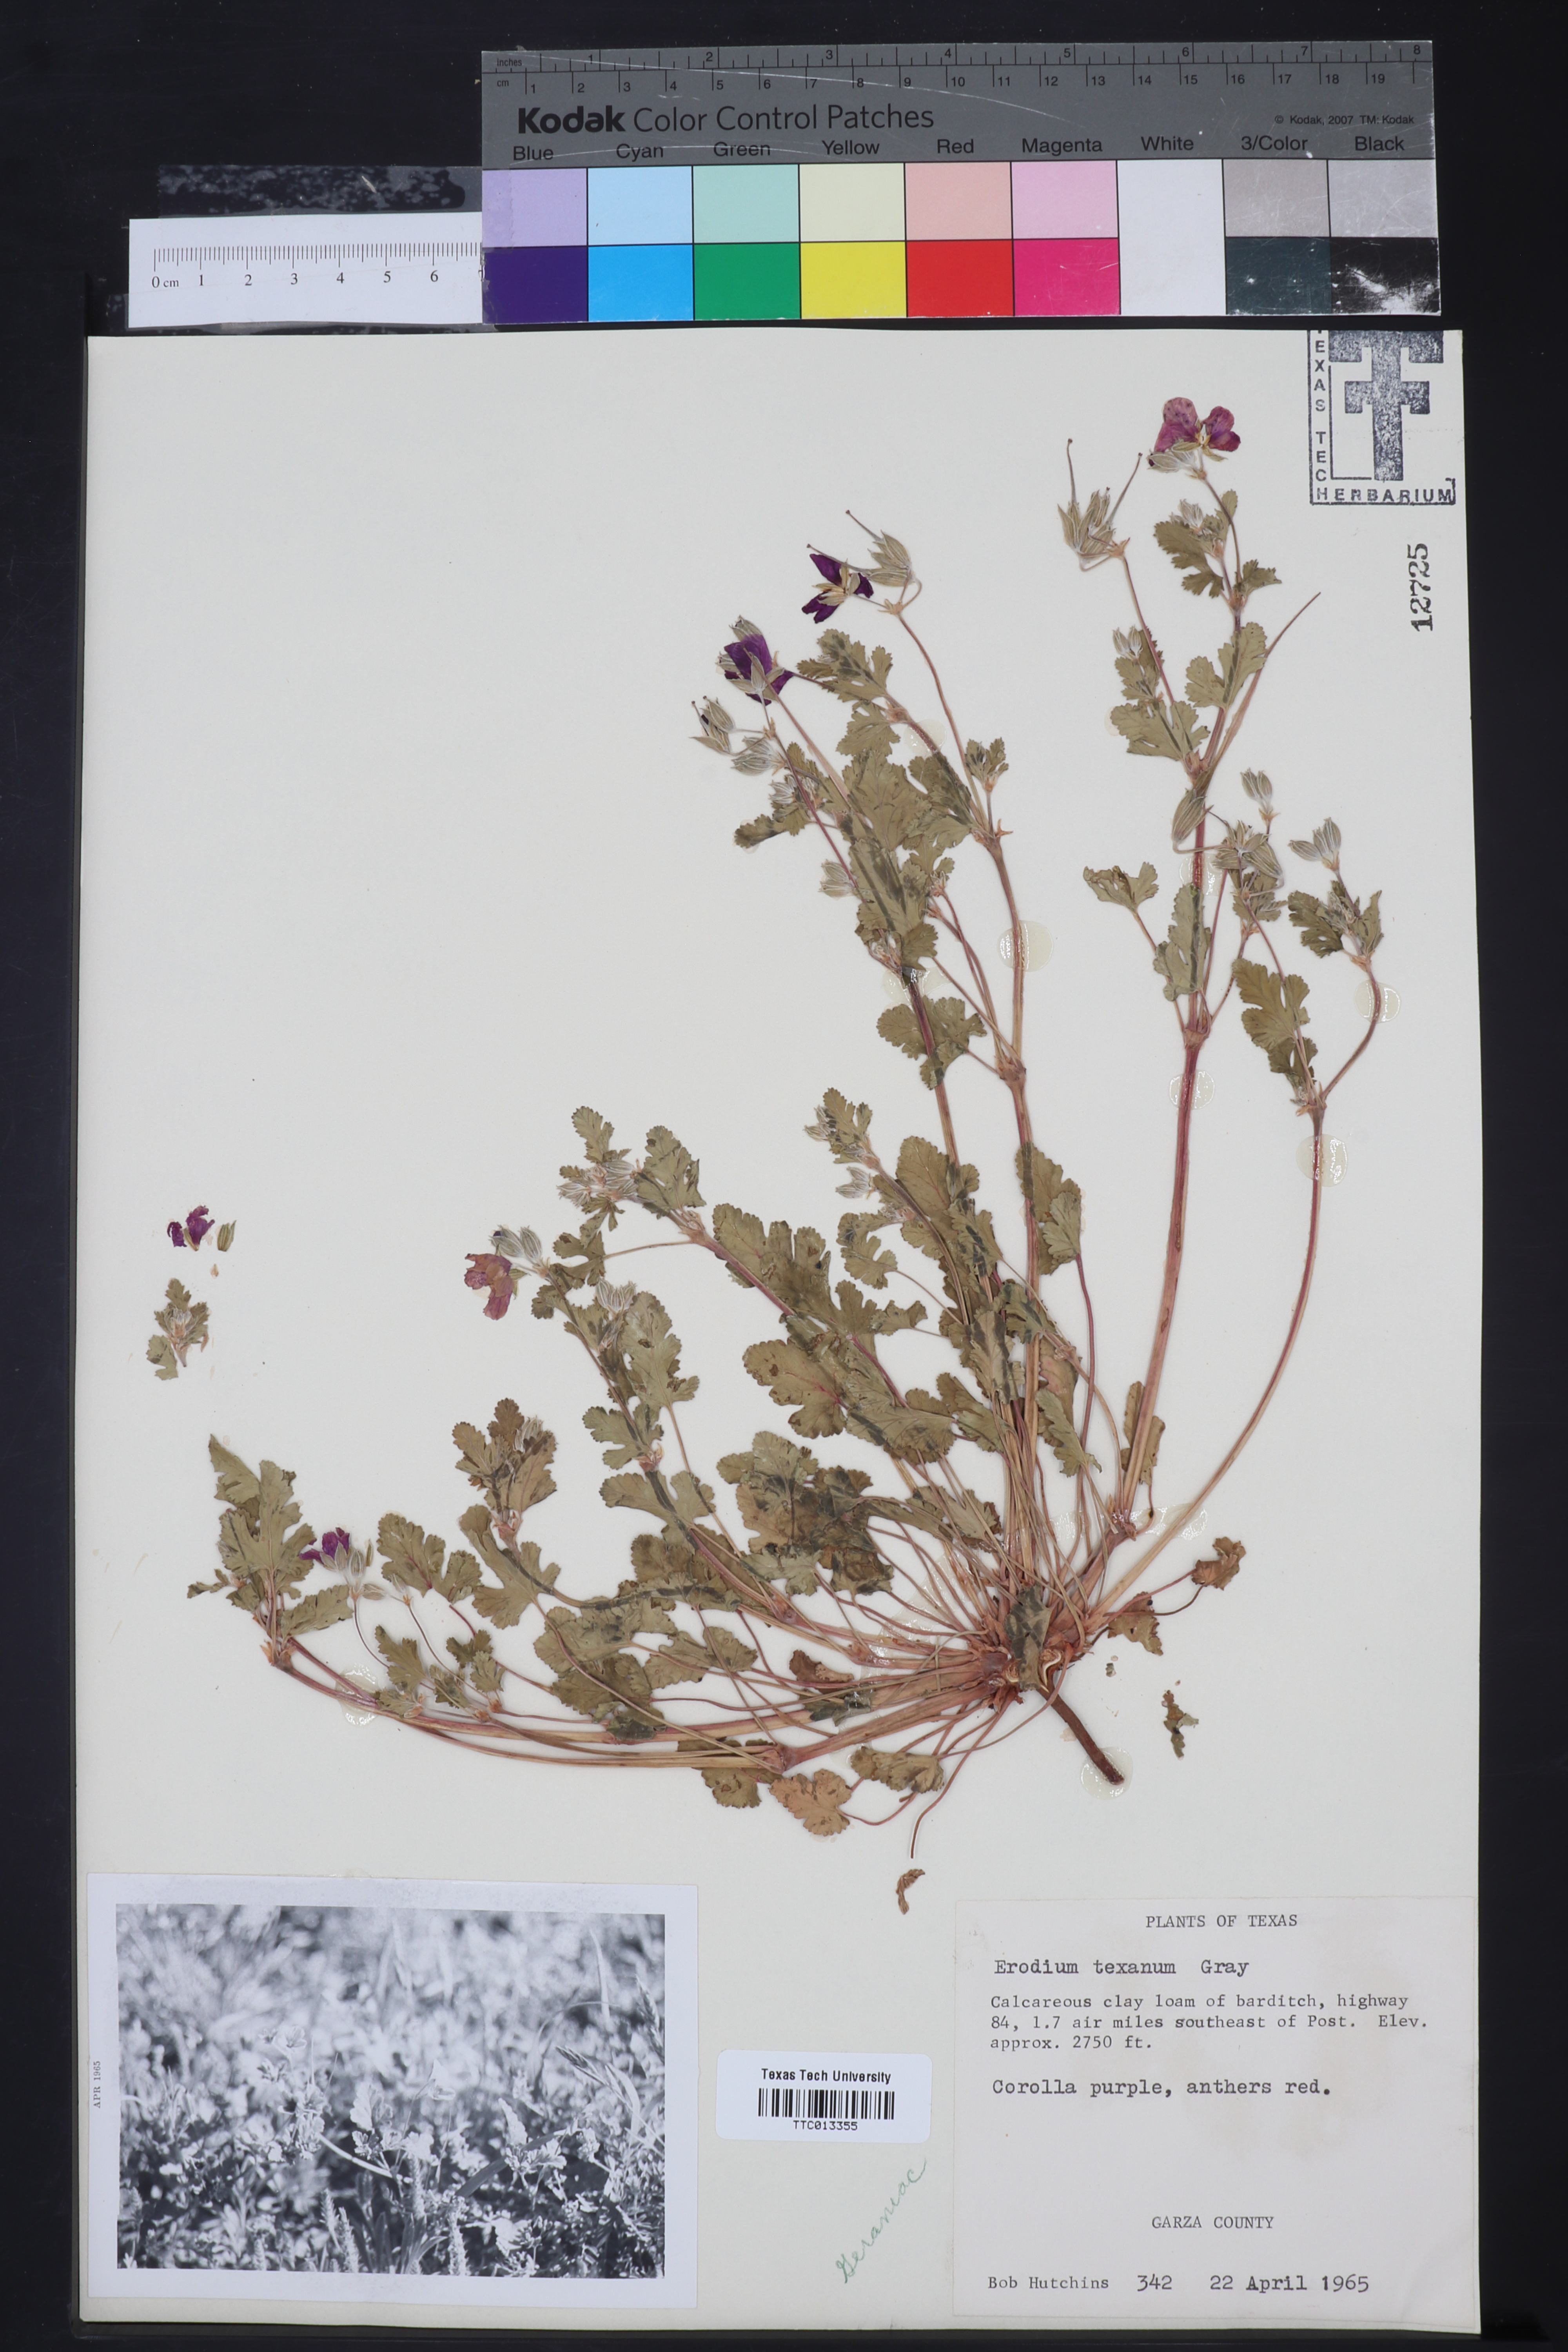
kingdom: Plantae
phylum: Tracheophyta
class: Magnoliopsida
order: Geraniales
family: Geraniaceae
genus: Erodium
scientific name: Erodium texanum
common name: Texas stork's-bill
